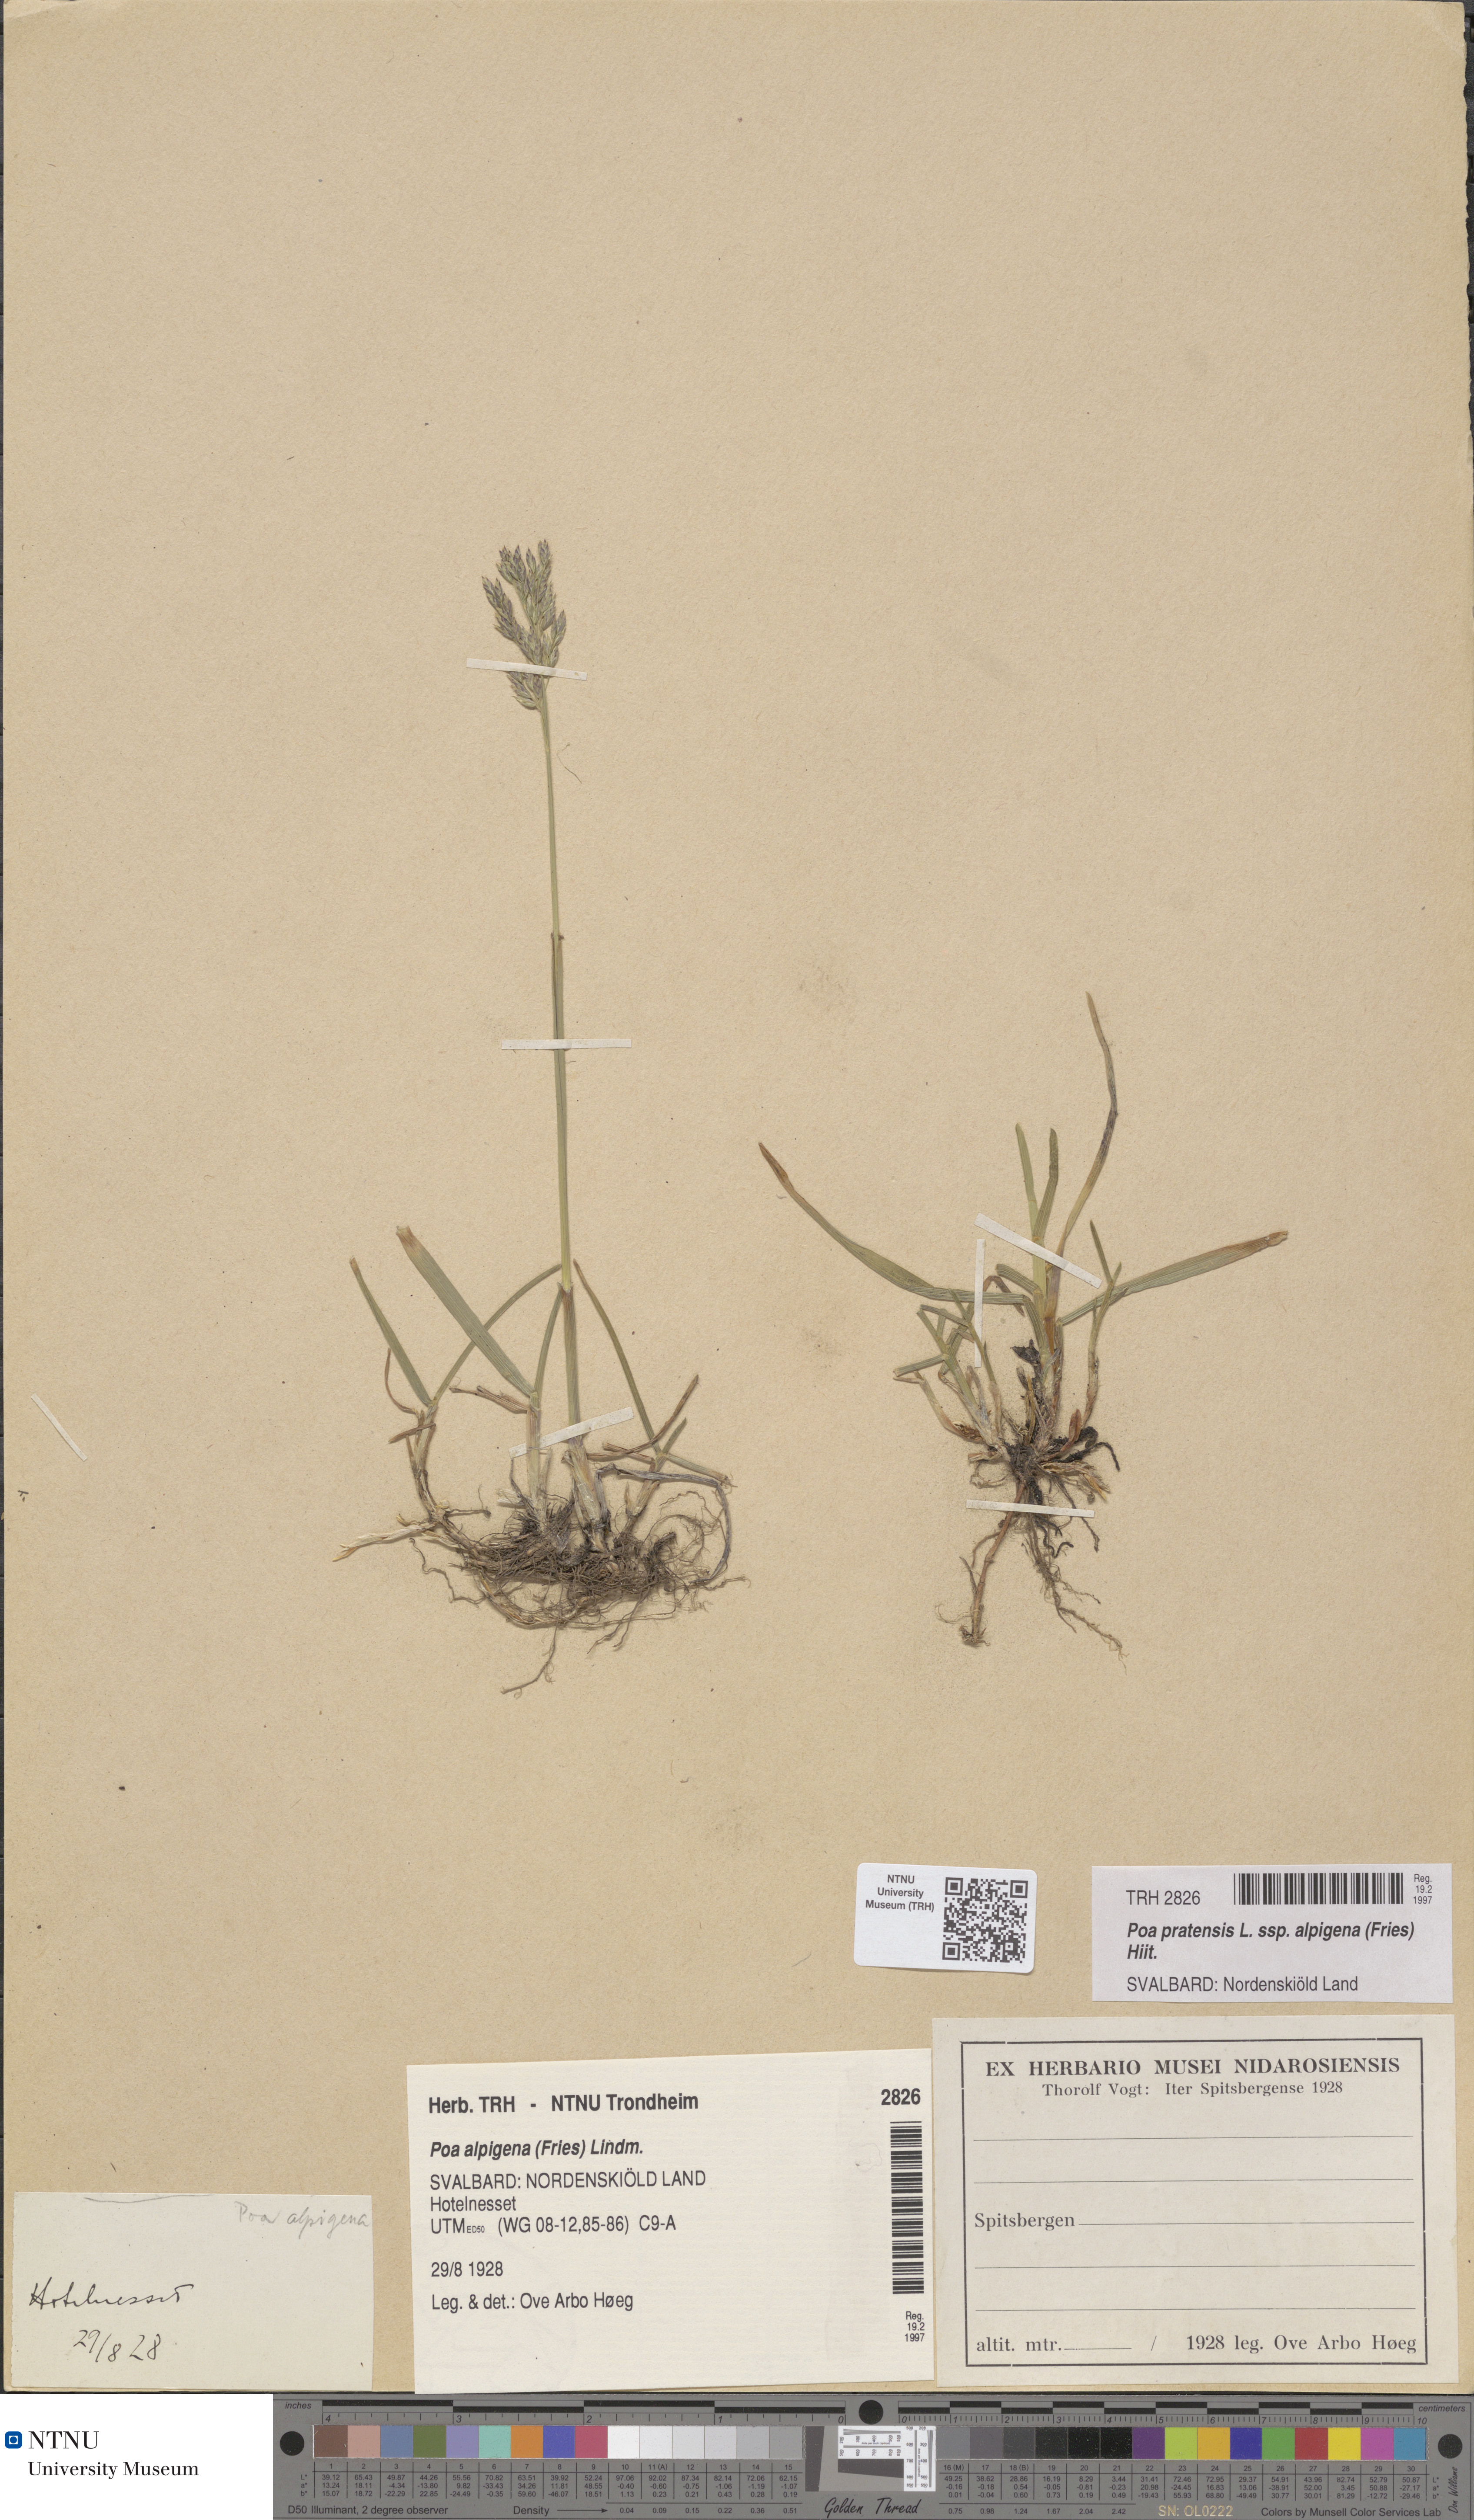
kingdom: Plantae
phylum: Tracheophyta
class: Liliopsida
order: Poales
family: Poaceae
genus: Poa
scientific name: Poa alpigena
